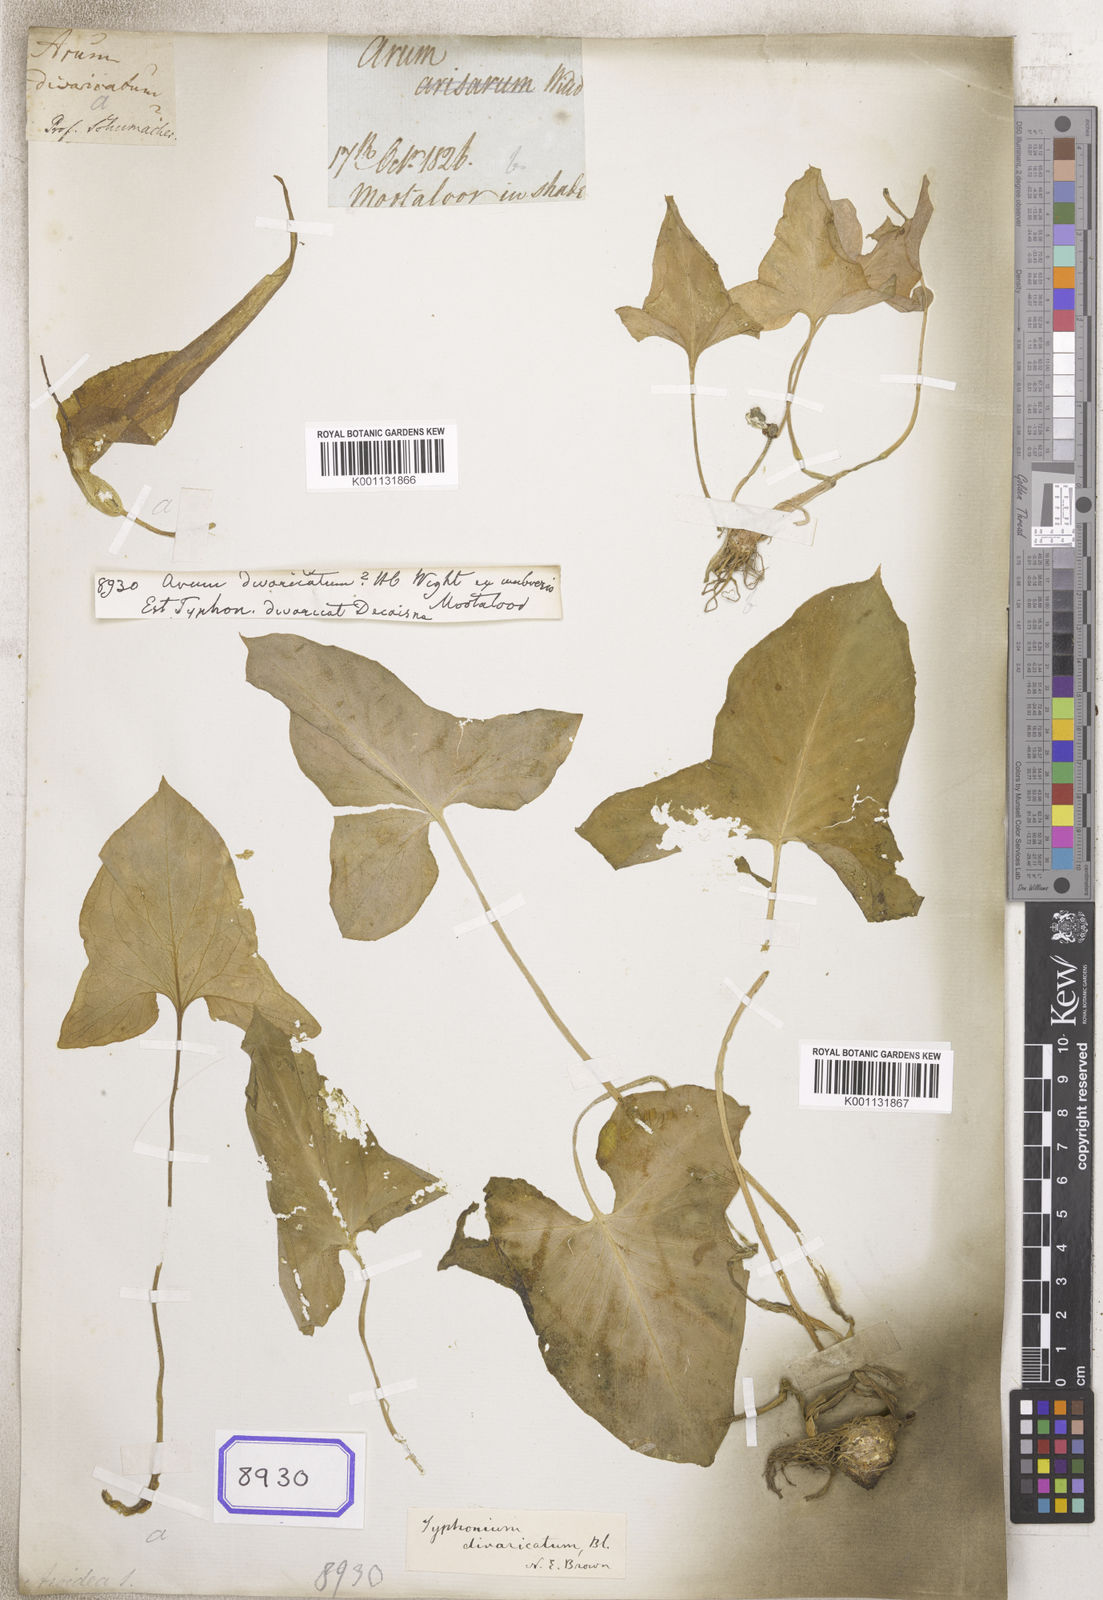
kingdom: Plantae
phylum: Tracheophyta
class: Liliopsida
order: Alismatales
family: Araceae
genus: Typhonium
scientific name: Typhonium flagelliforme
